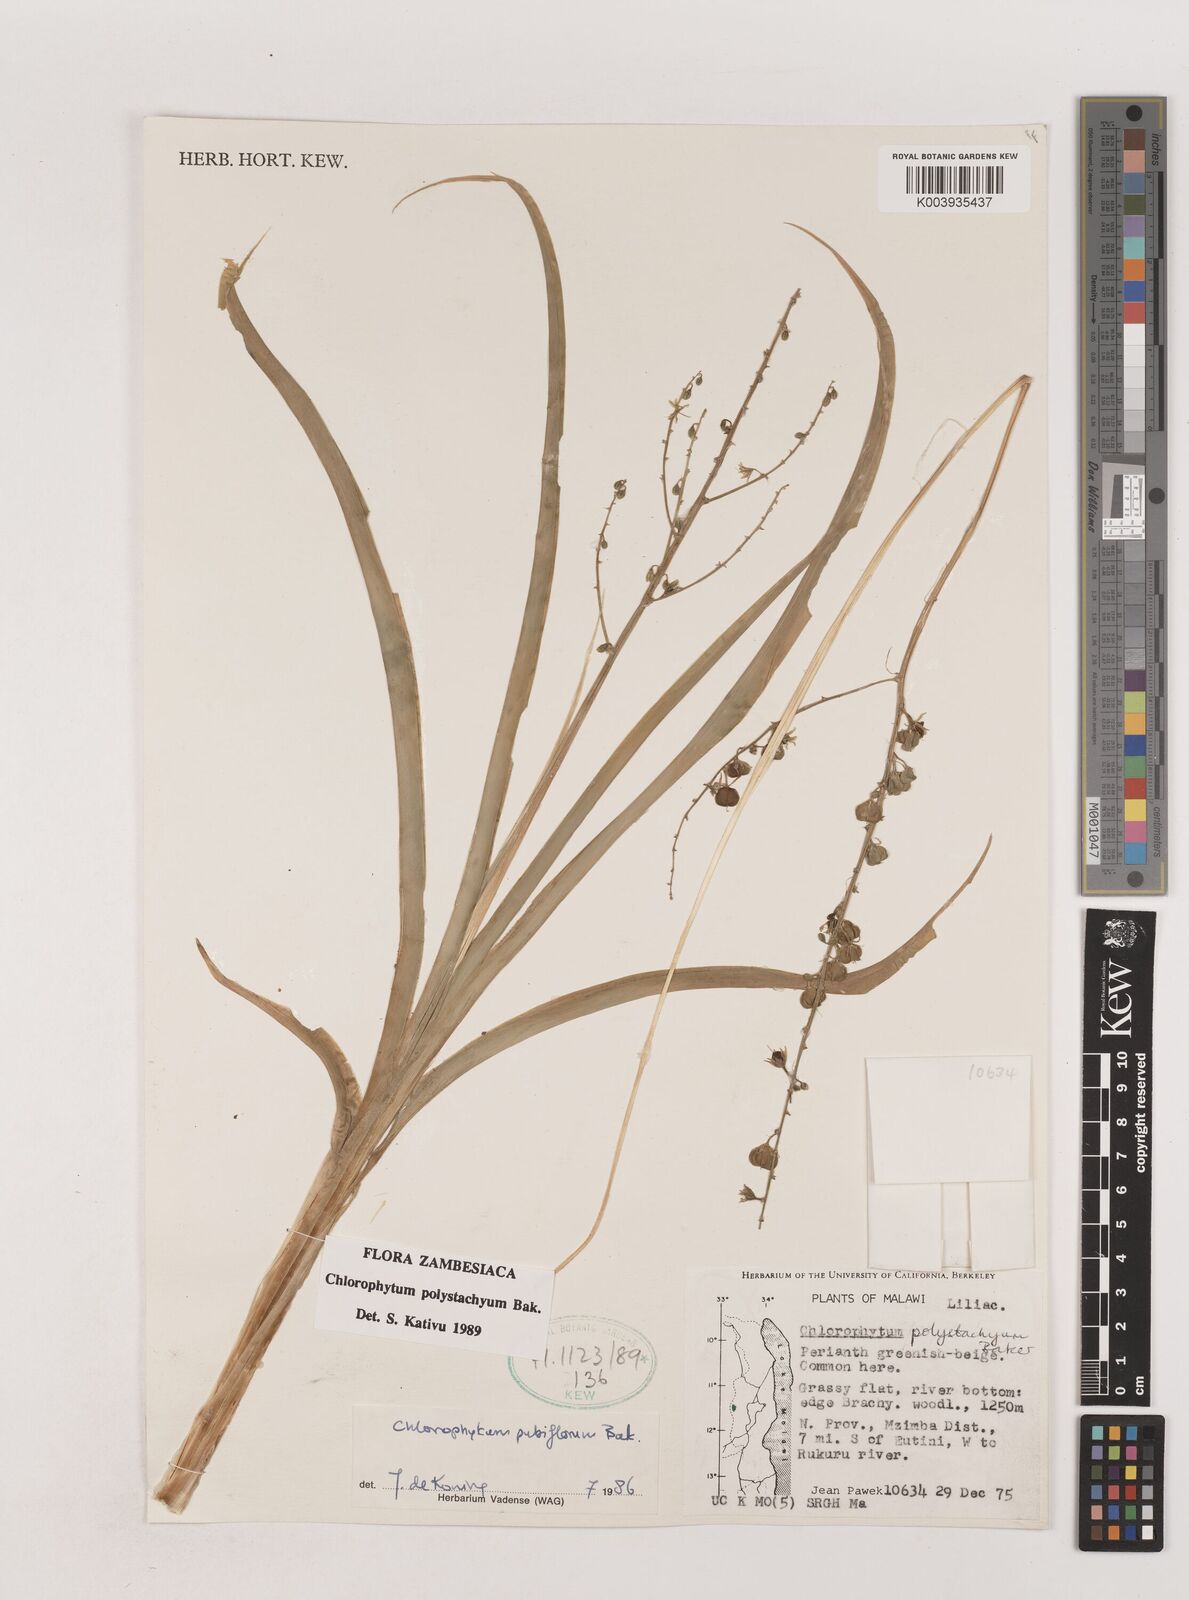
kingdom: Plantae
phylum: Tracheophyta
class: Liliopsida
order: Asparagales
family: Asparagaceae
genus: Chlorophytum
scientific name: Chlorophytum polystachys
